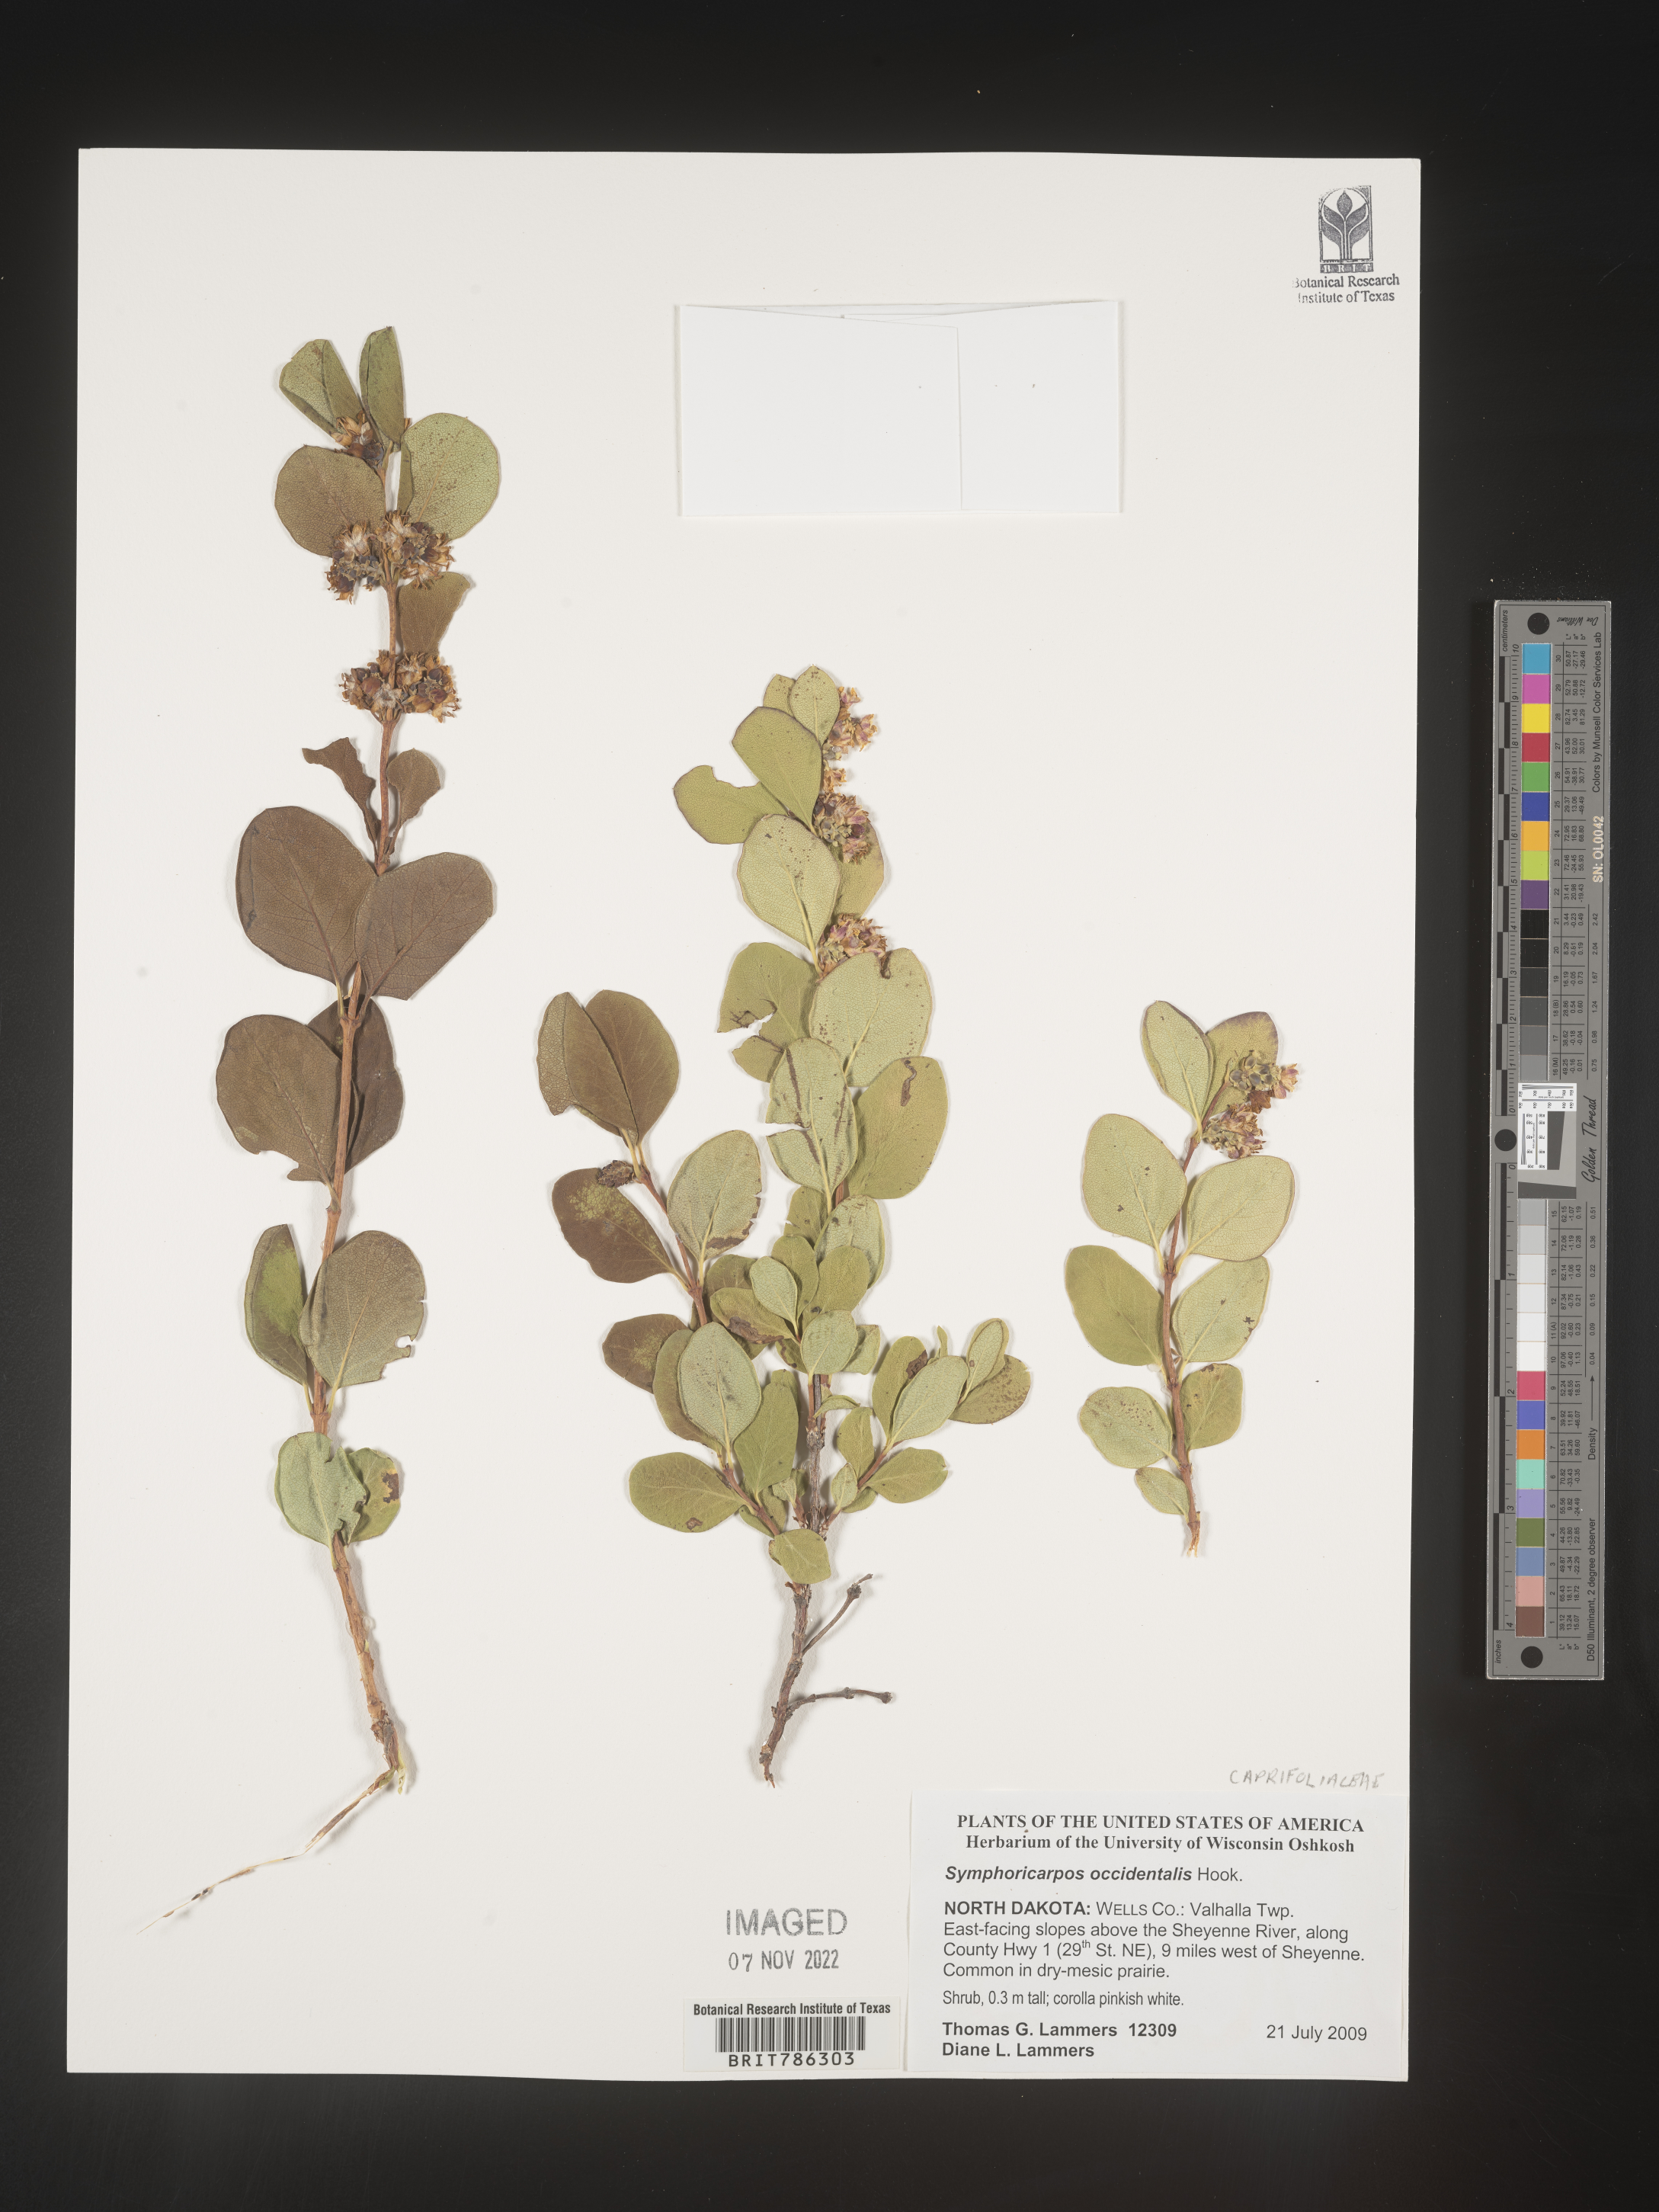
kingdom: Plantae
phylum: Tracheophyta
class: Magnoliopsida
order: Dipsacales
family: Caprifoliaceae
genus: Symphoricarpos
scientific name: Symphoricarpos occidentalis
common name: Wolfberry
